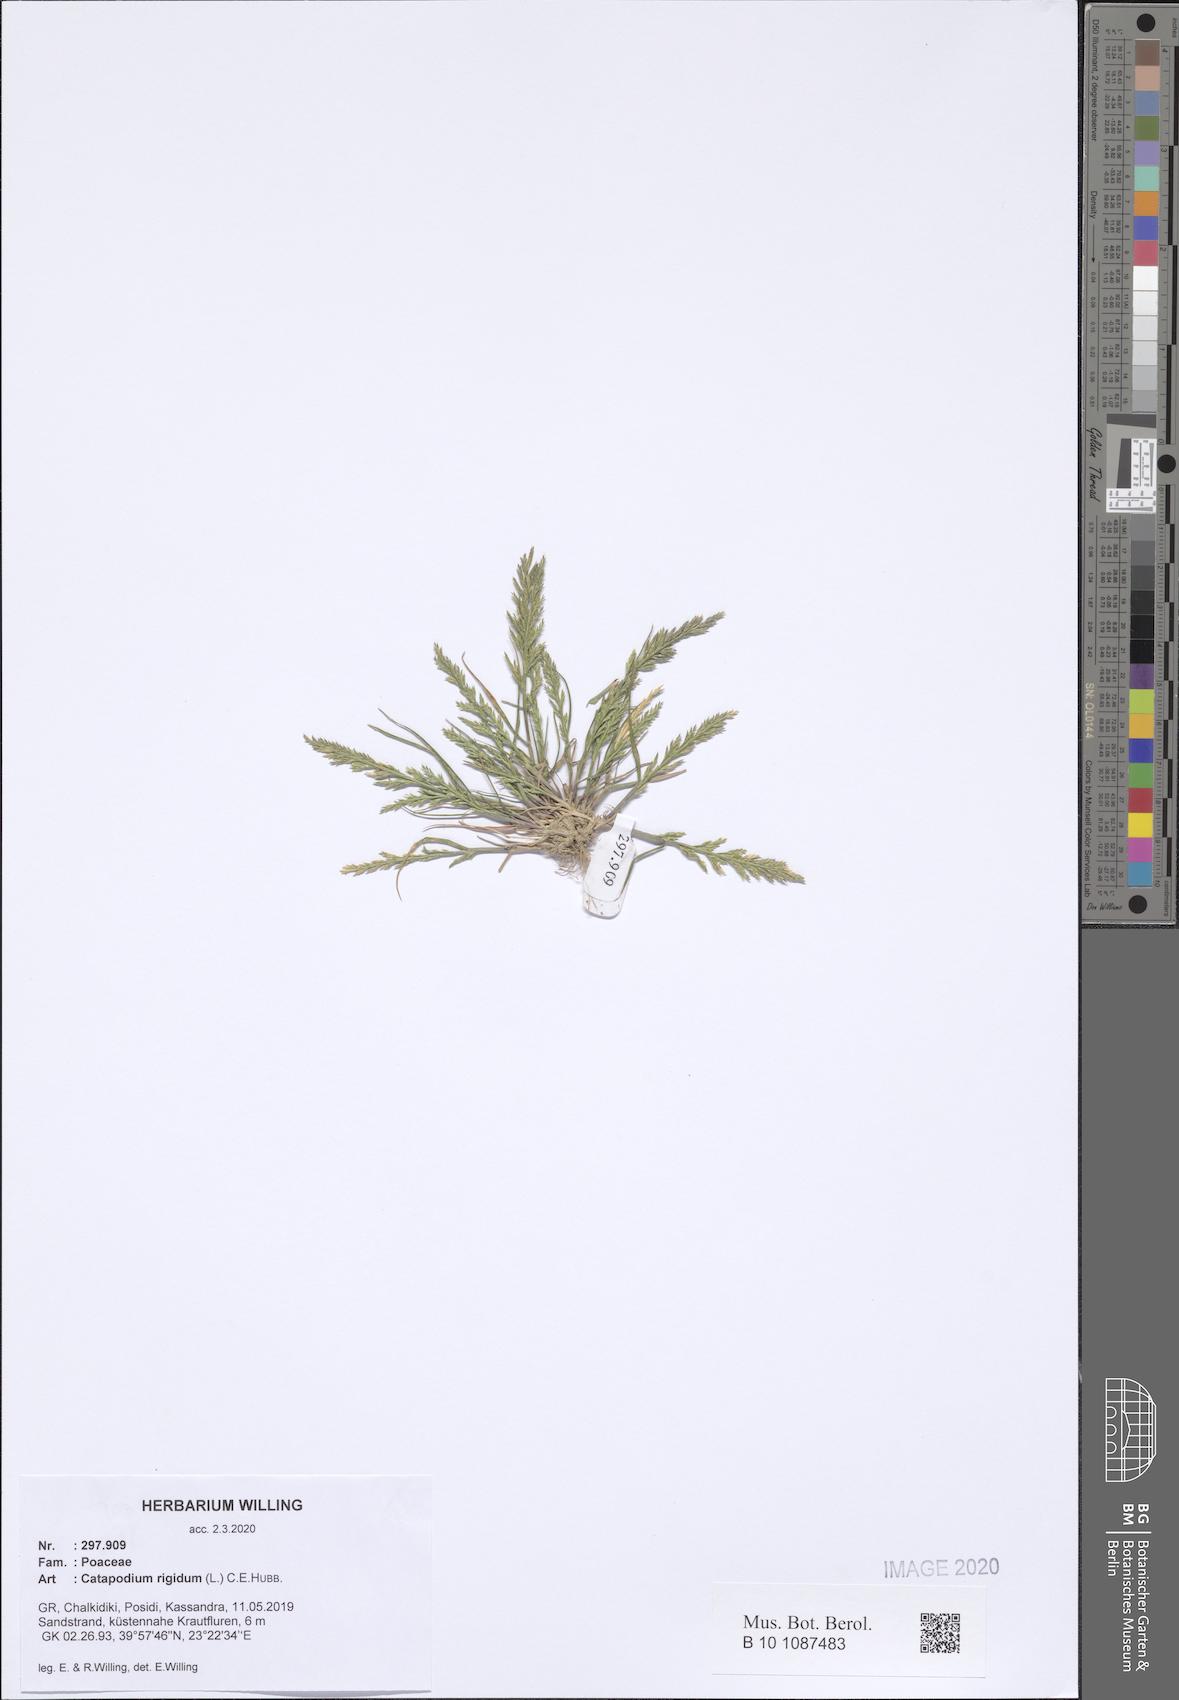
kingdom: Plantae
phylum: Tracheophyta
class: Liliopsida
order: Poales
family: Poaceae
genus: Catapodium
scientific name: Catapodium rigidum
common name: Fern-grass
